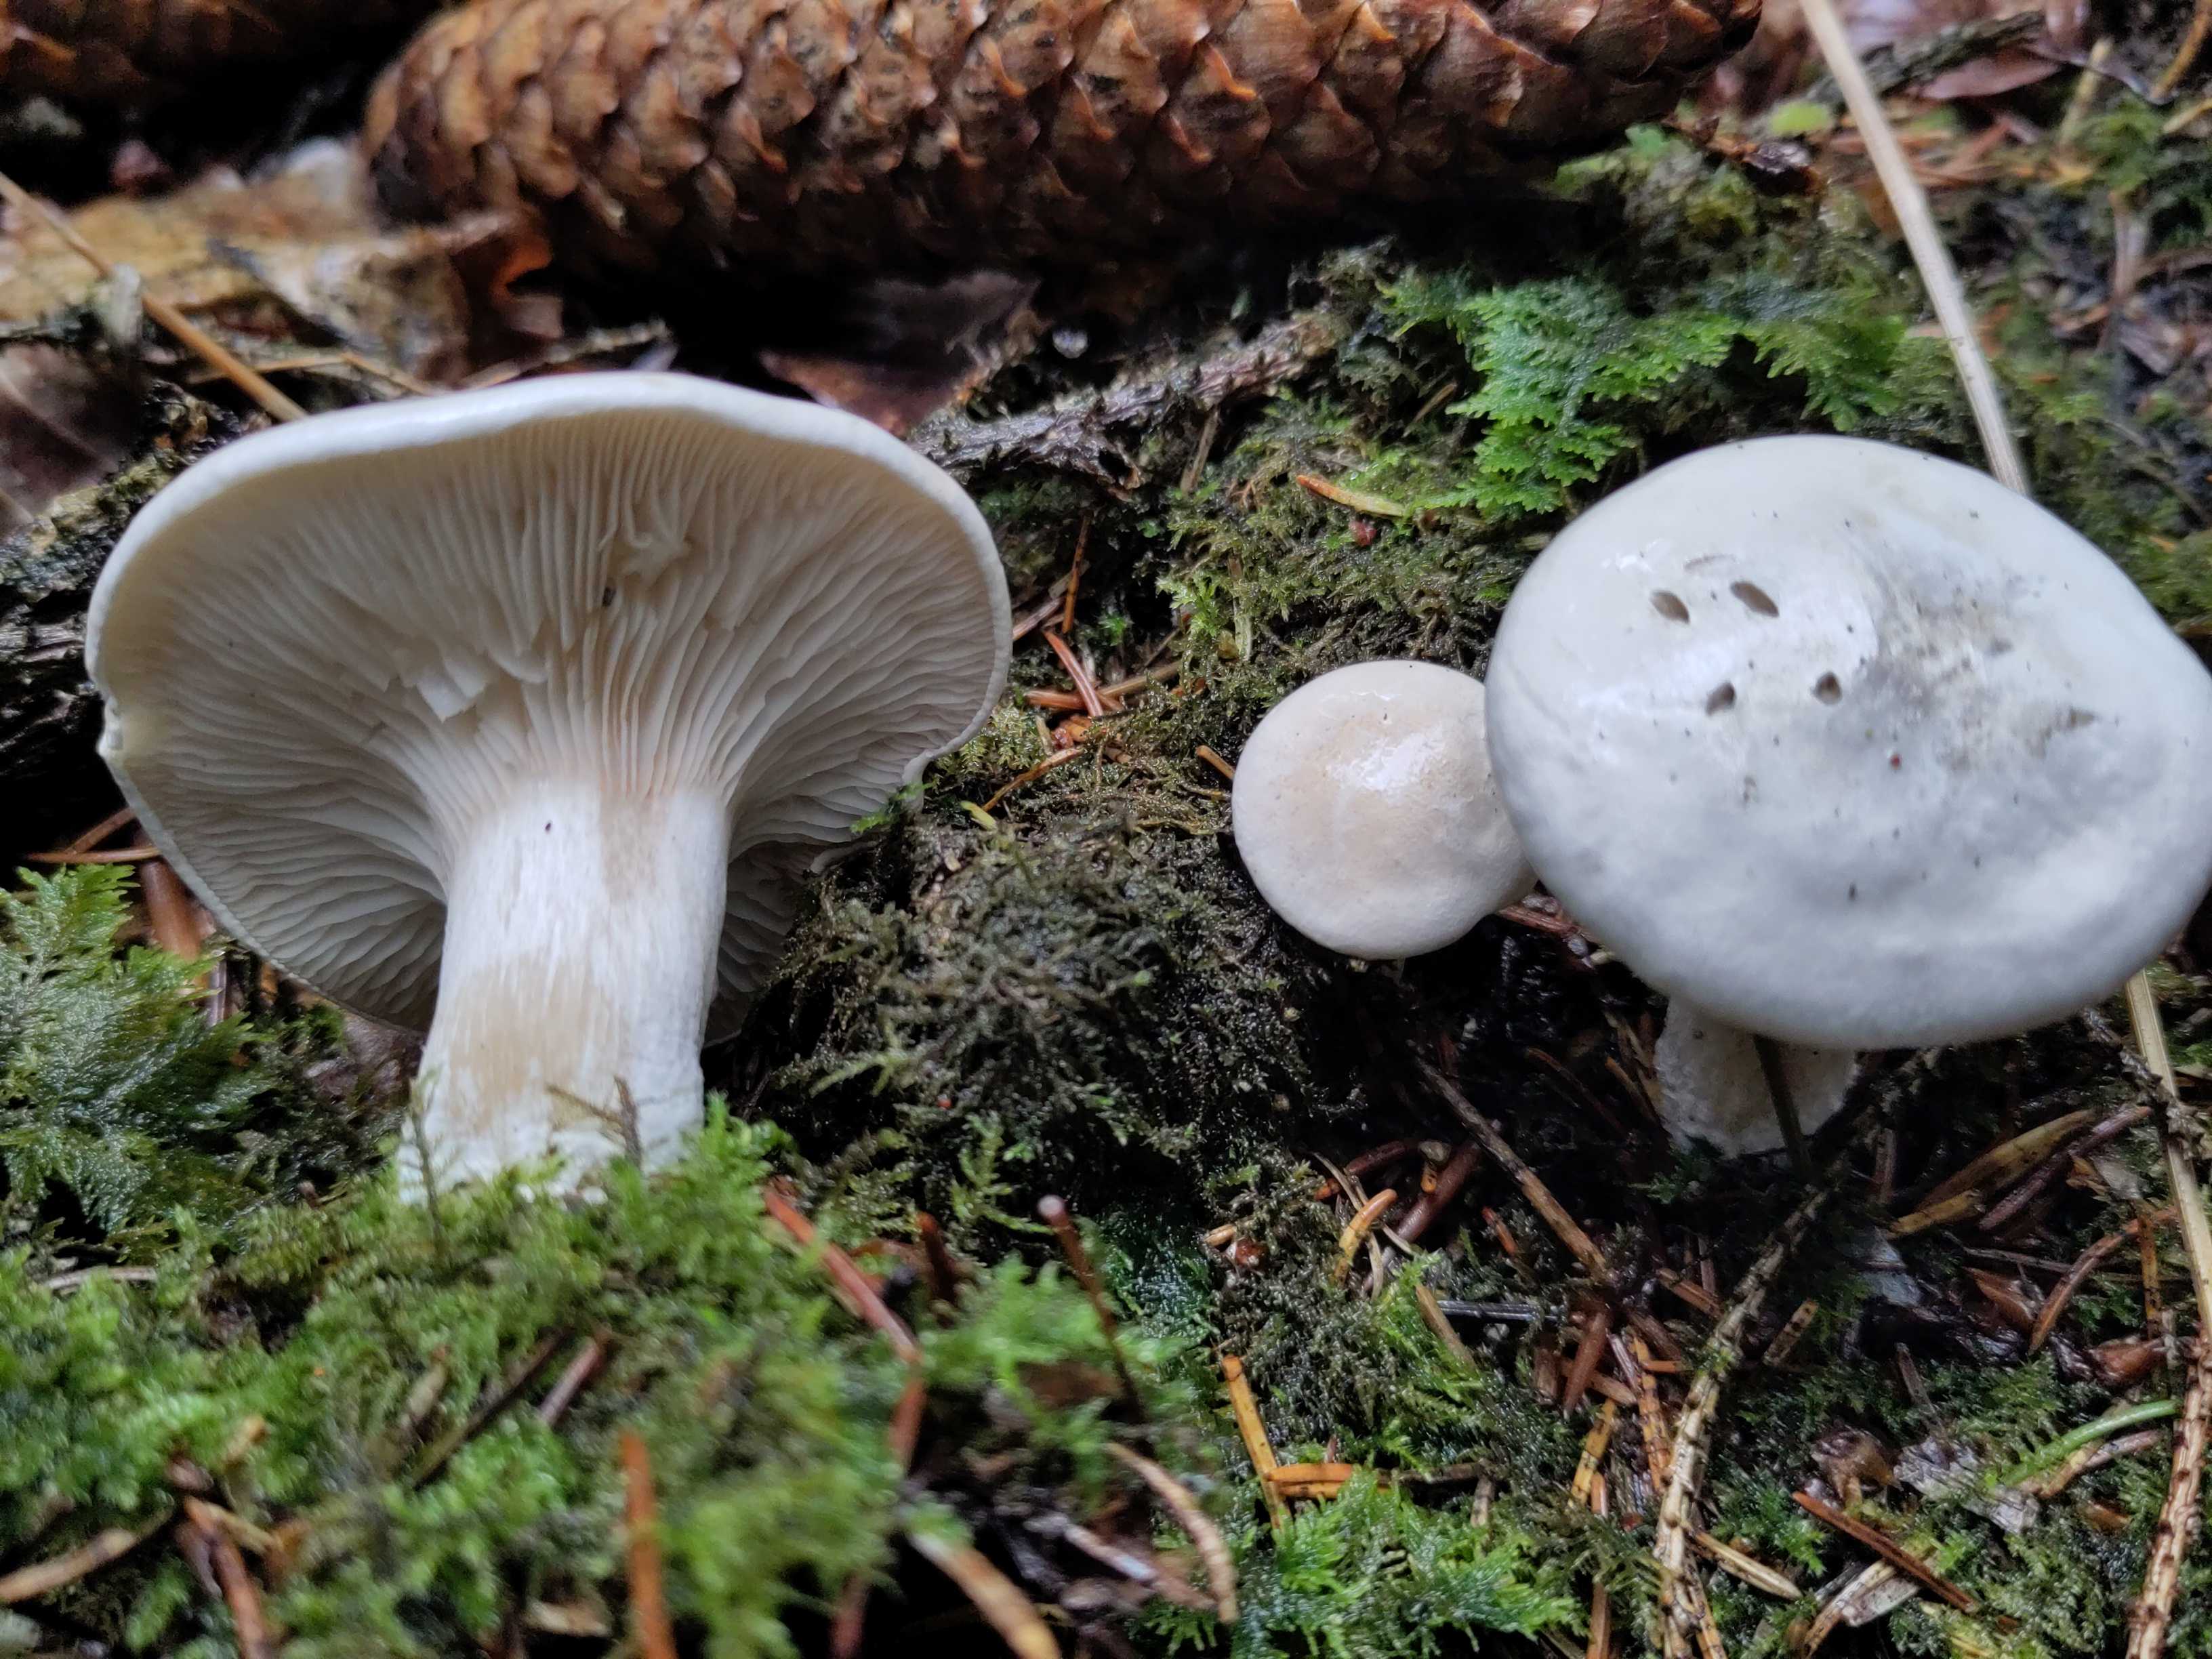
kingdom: Fungi
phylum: Basidiomycota
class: Agaricomycetes
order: Agaricales
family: Entolomataceae
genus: Clitopilus
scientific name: Clitopilus prunulus
